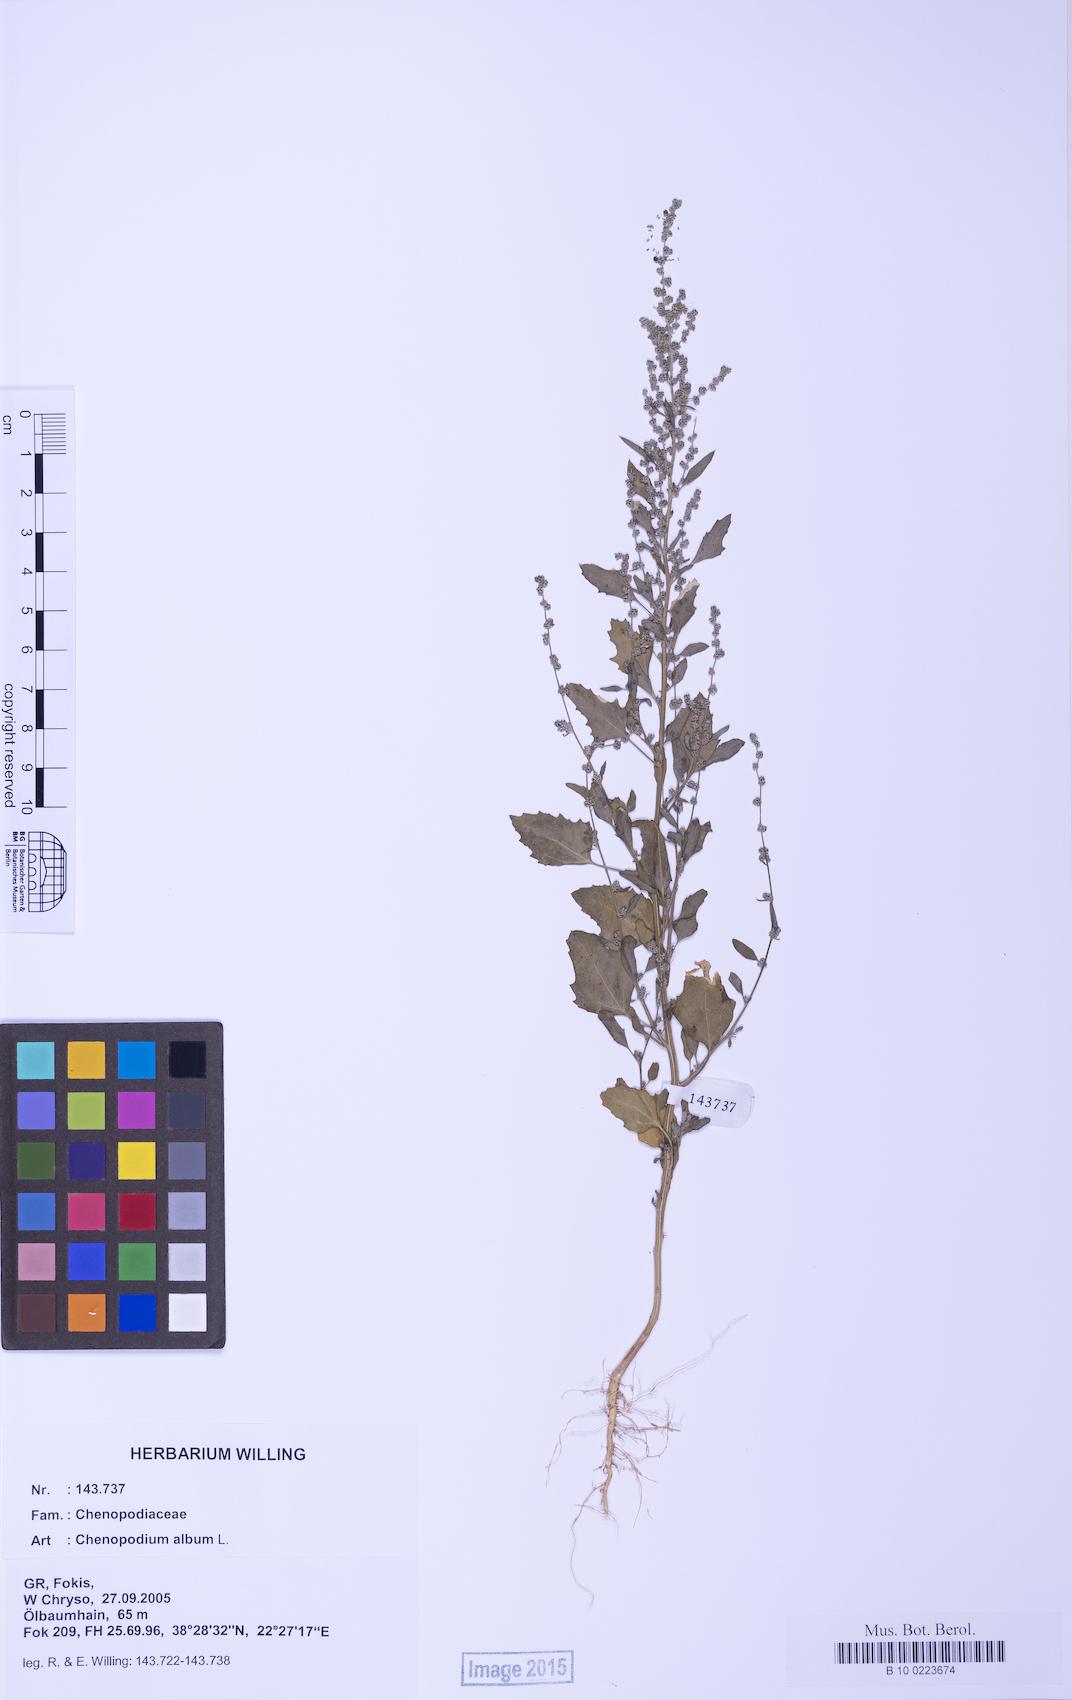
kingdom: Plantae
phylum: Tracheophyta
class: Magnoliopsida
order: Caryophyllales
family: Amaranthaceae
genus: Chenopodium
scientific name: Chenopodium album
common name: Fat-hen
